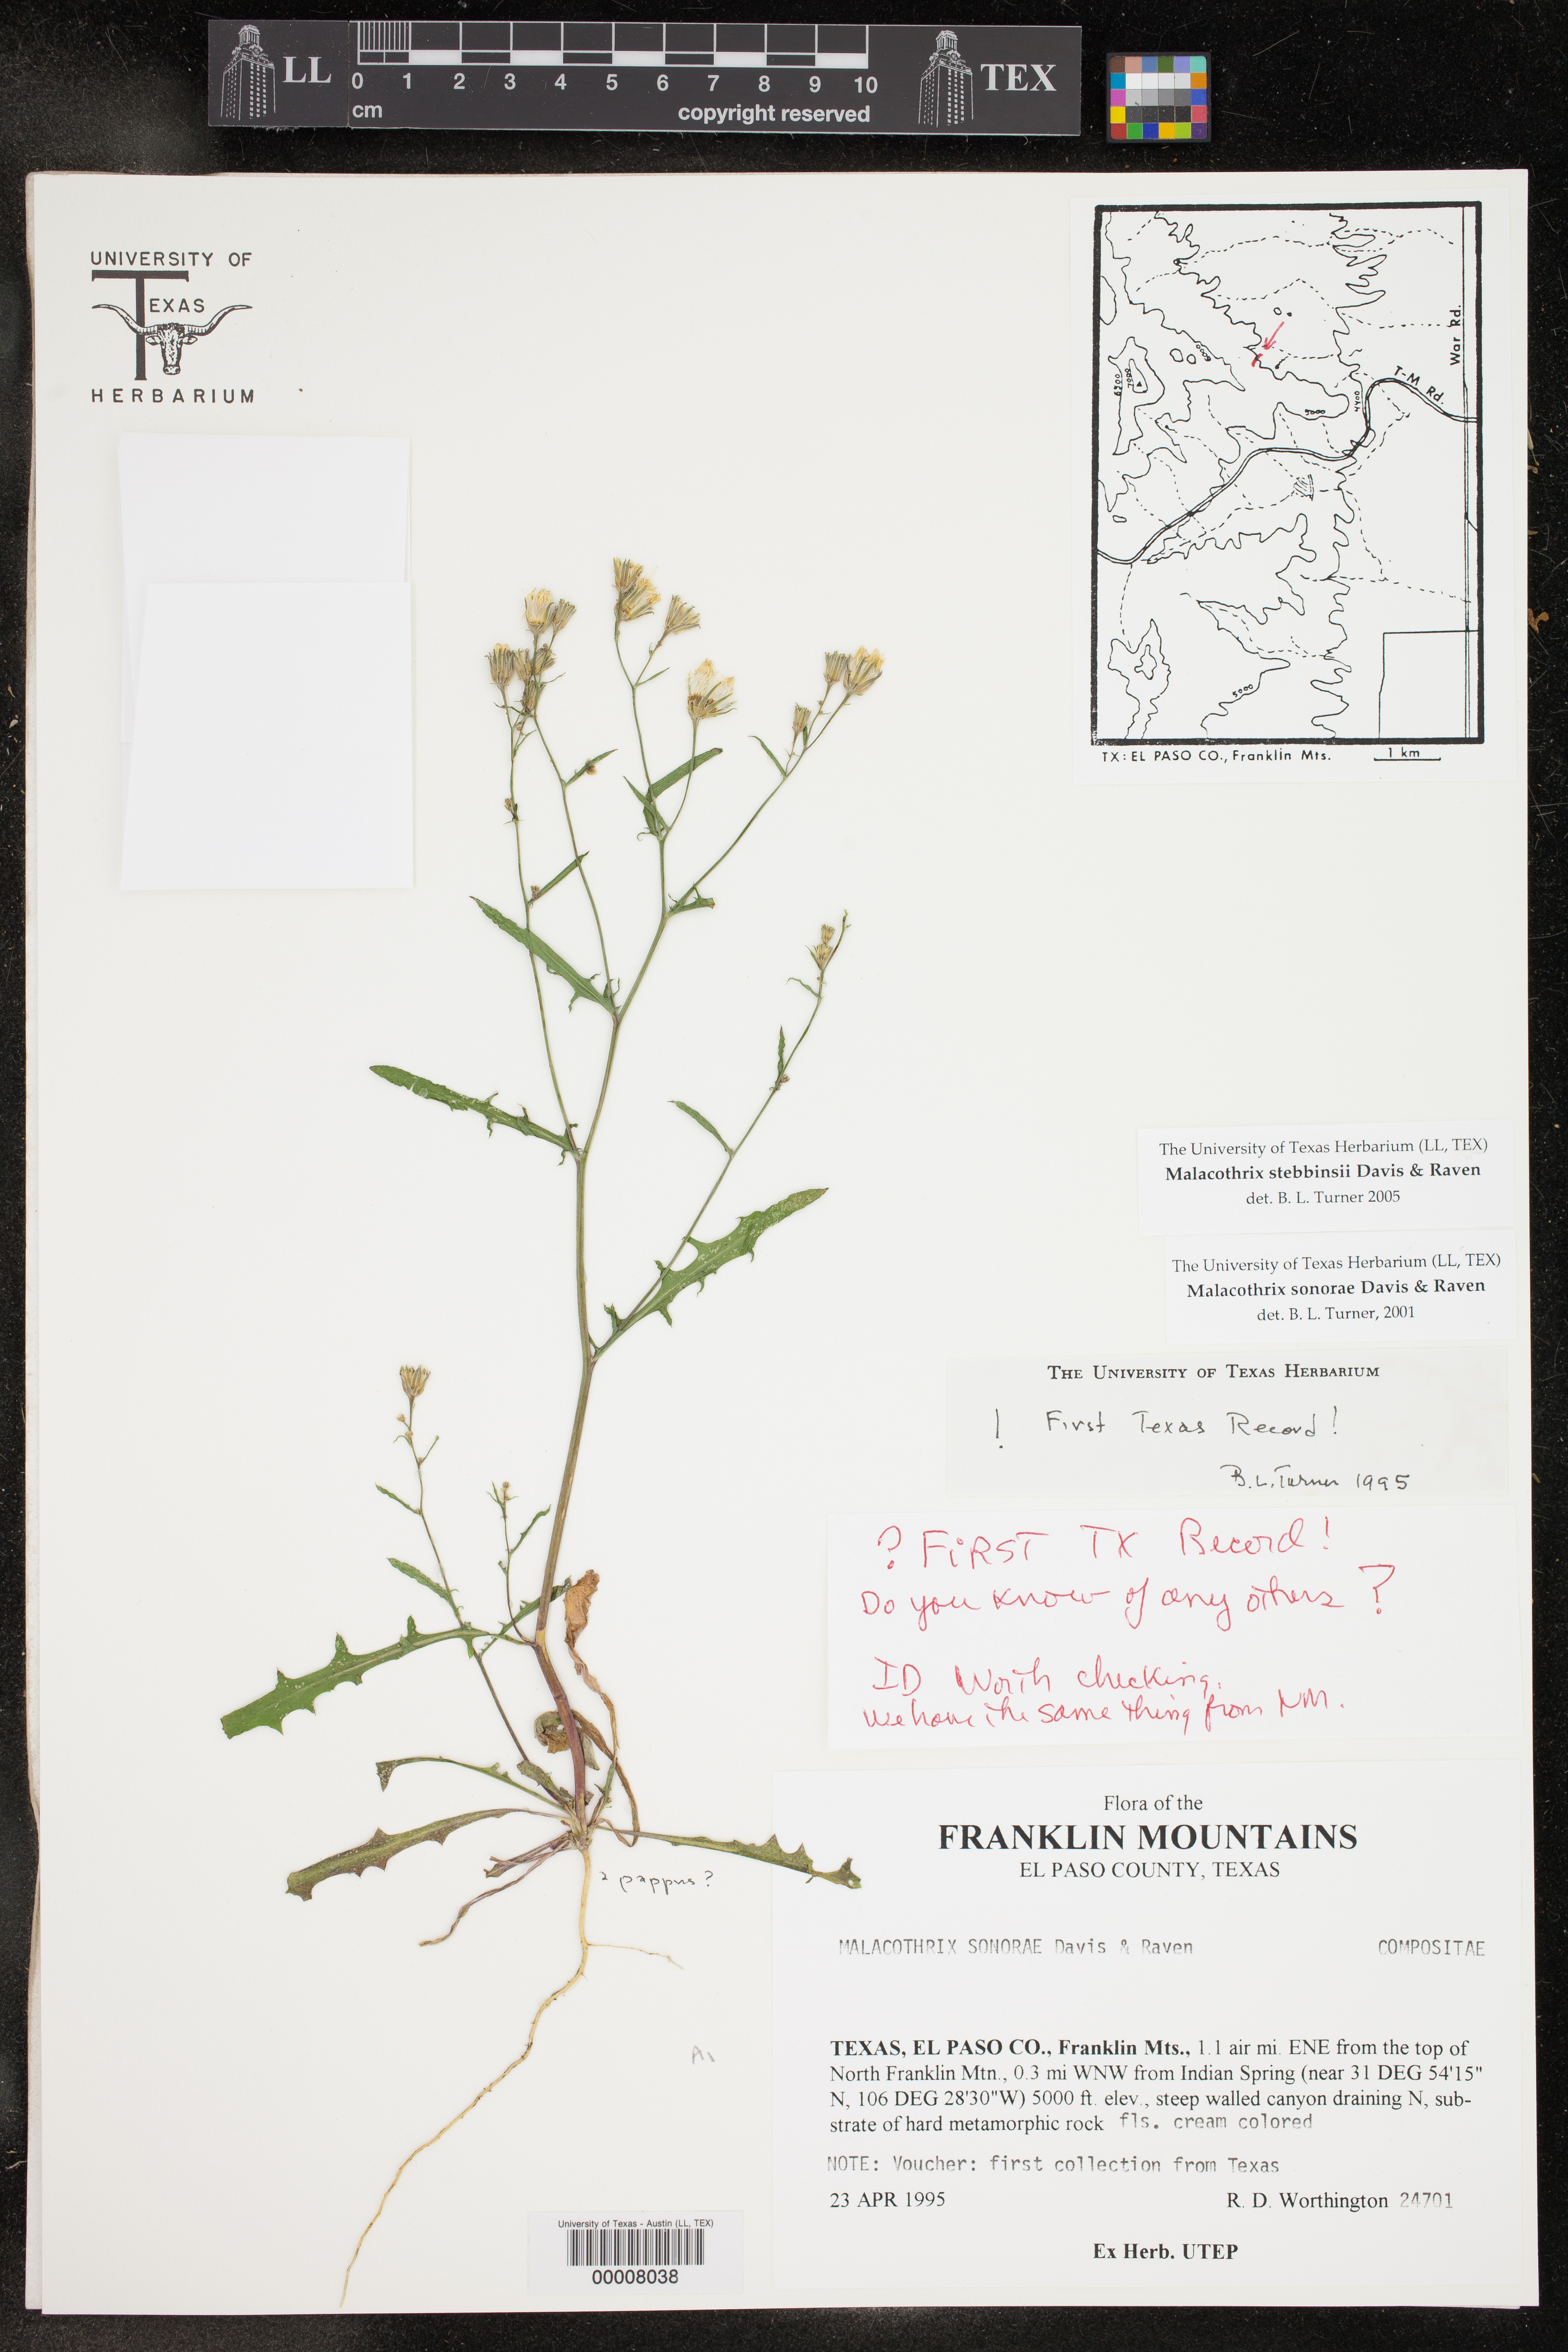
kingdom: Plantae
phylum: Tracheophyta
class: Magnoliopsida
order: Asterales
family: Asteraceae
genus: Malacothrix
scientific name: Malacothrix stebbinsii
